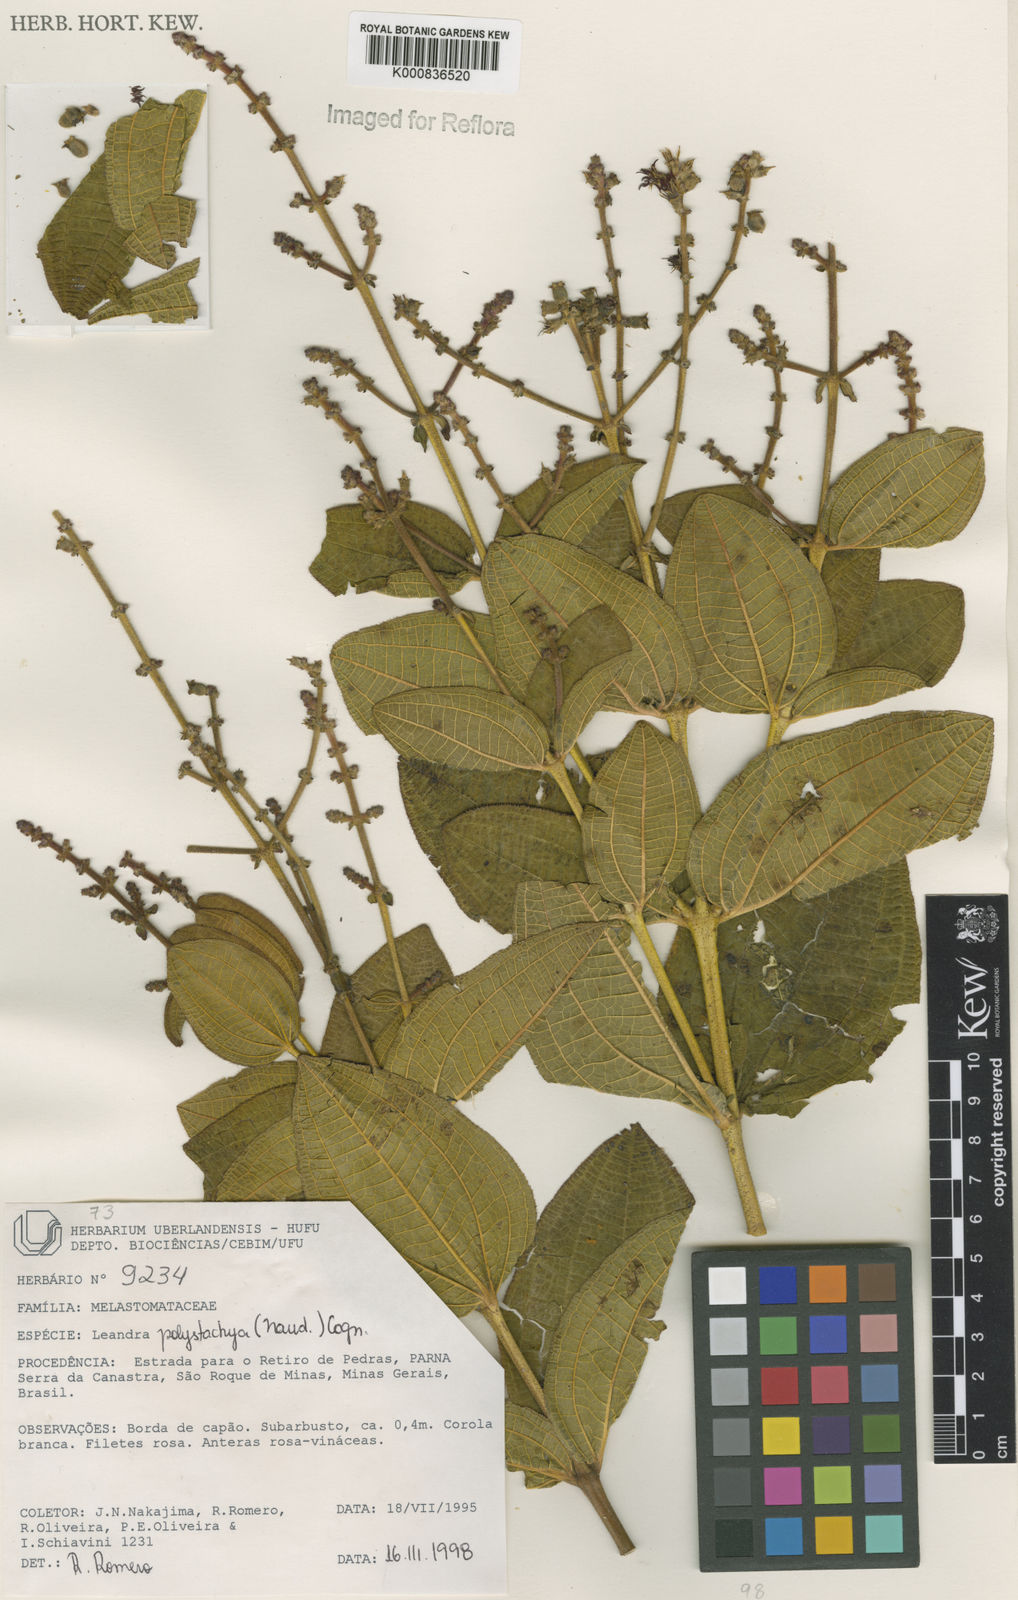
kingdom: Plantae
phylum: Tracheophyta
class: Magnoliopsida
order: Myrtales
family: Melastomataceae
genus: Miconia
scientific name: Miconia polystachya
